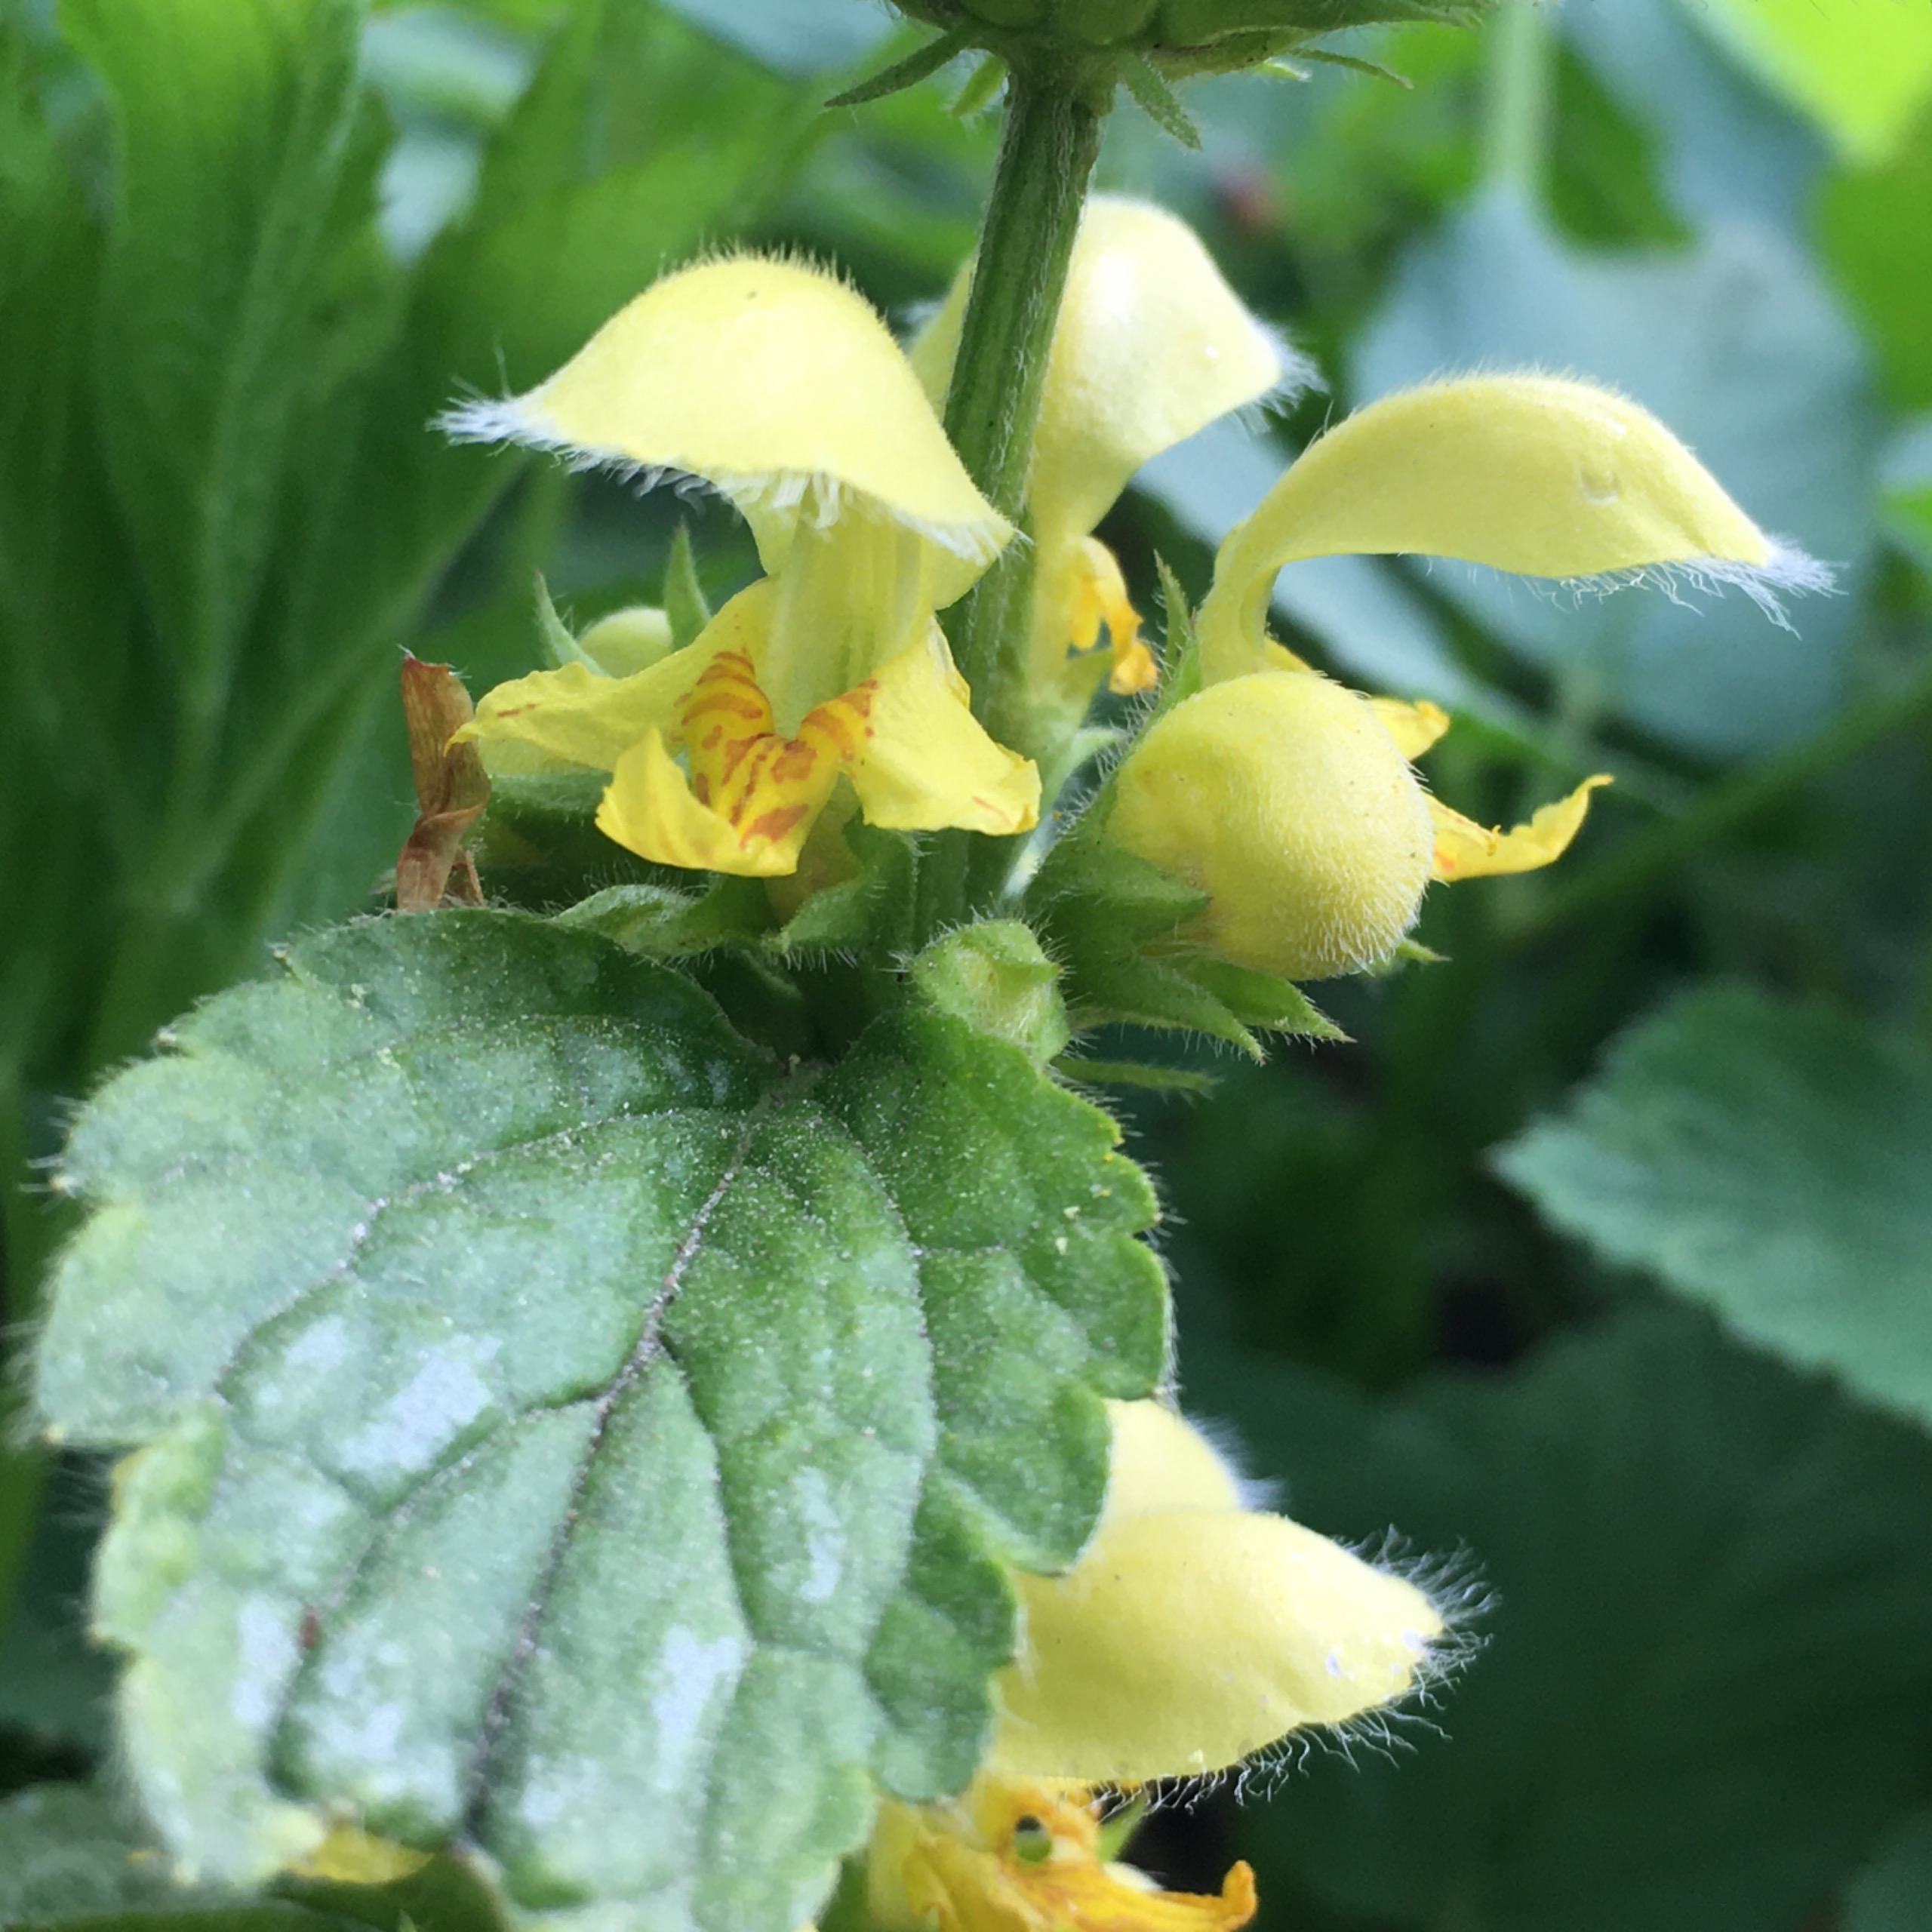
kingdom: Plantae
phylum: Tracheophyta
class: Magnoliopsida
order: Lamiales
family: Lamiaceae
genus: Lamium
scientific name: Lamium galeobdolon
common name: Guldnælde
